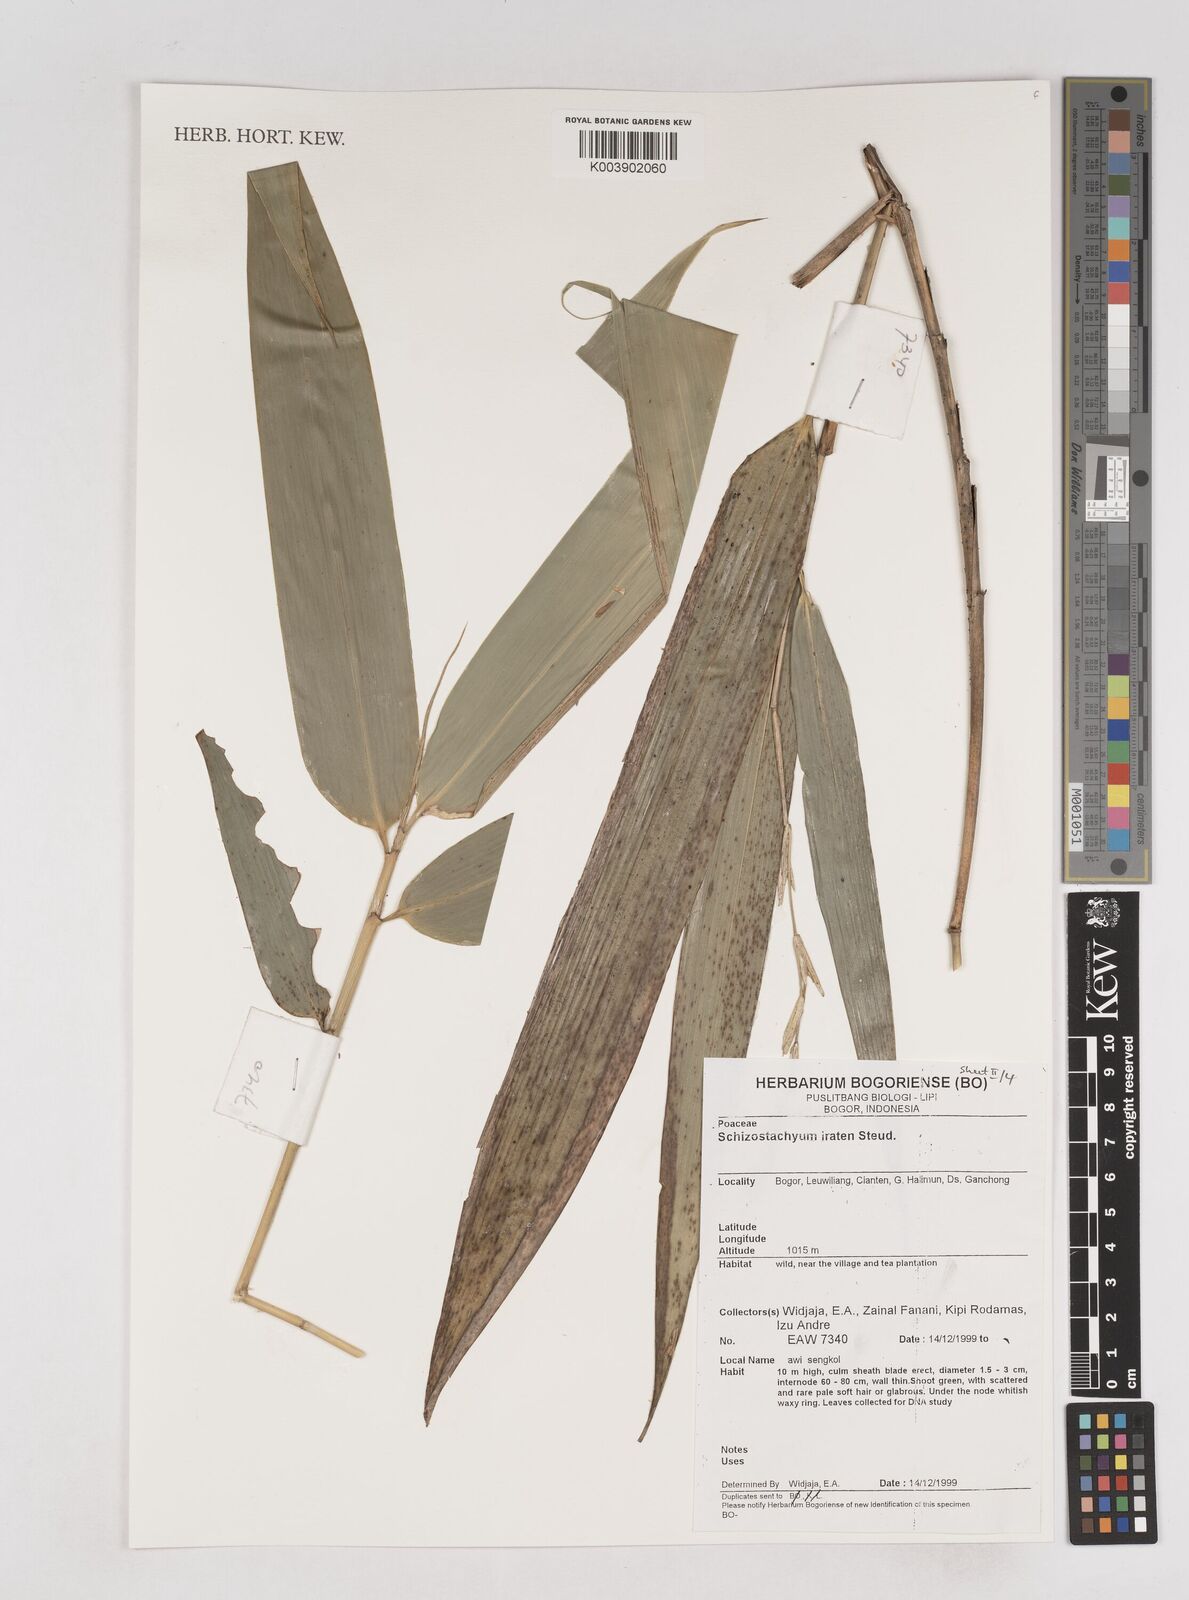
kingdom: Plantae
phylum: Tracheophyta
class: Liliopsida
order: Poales
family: Poaceae
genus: Schizostachyum
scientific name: Schizostachyum iraten
